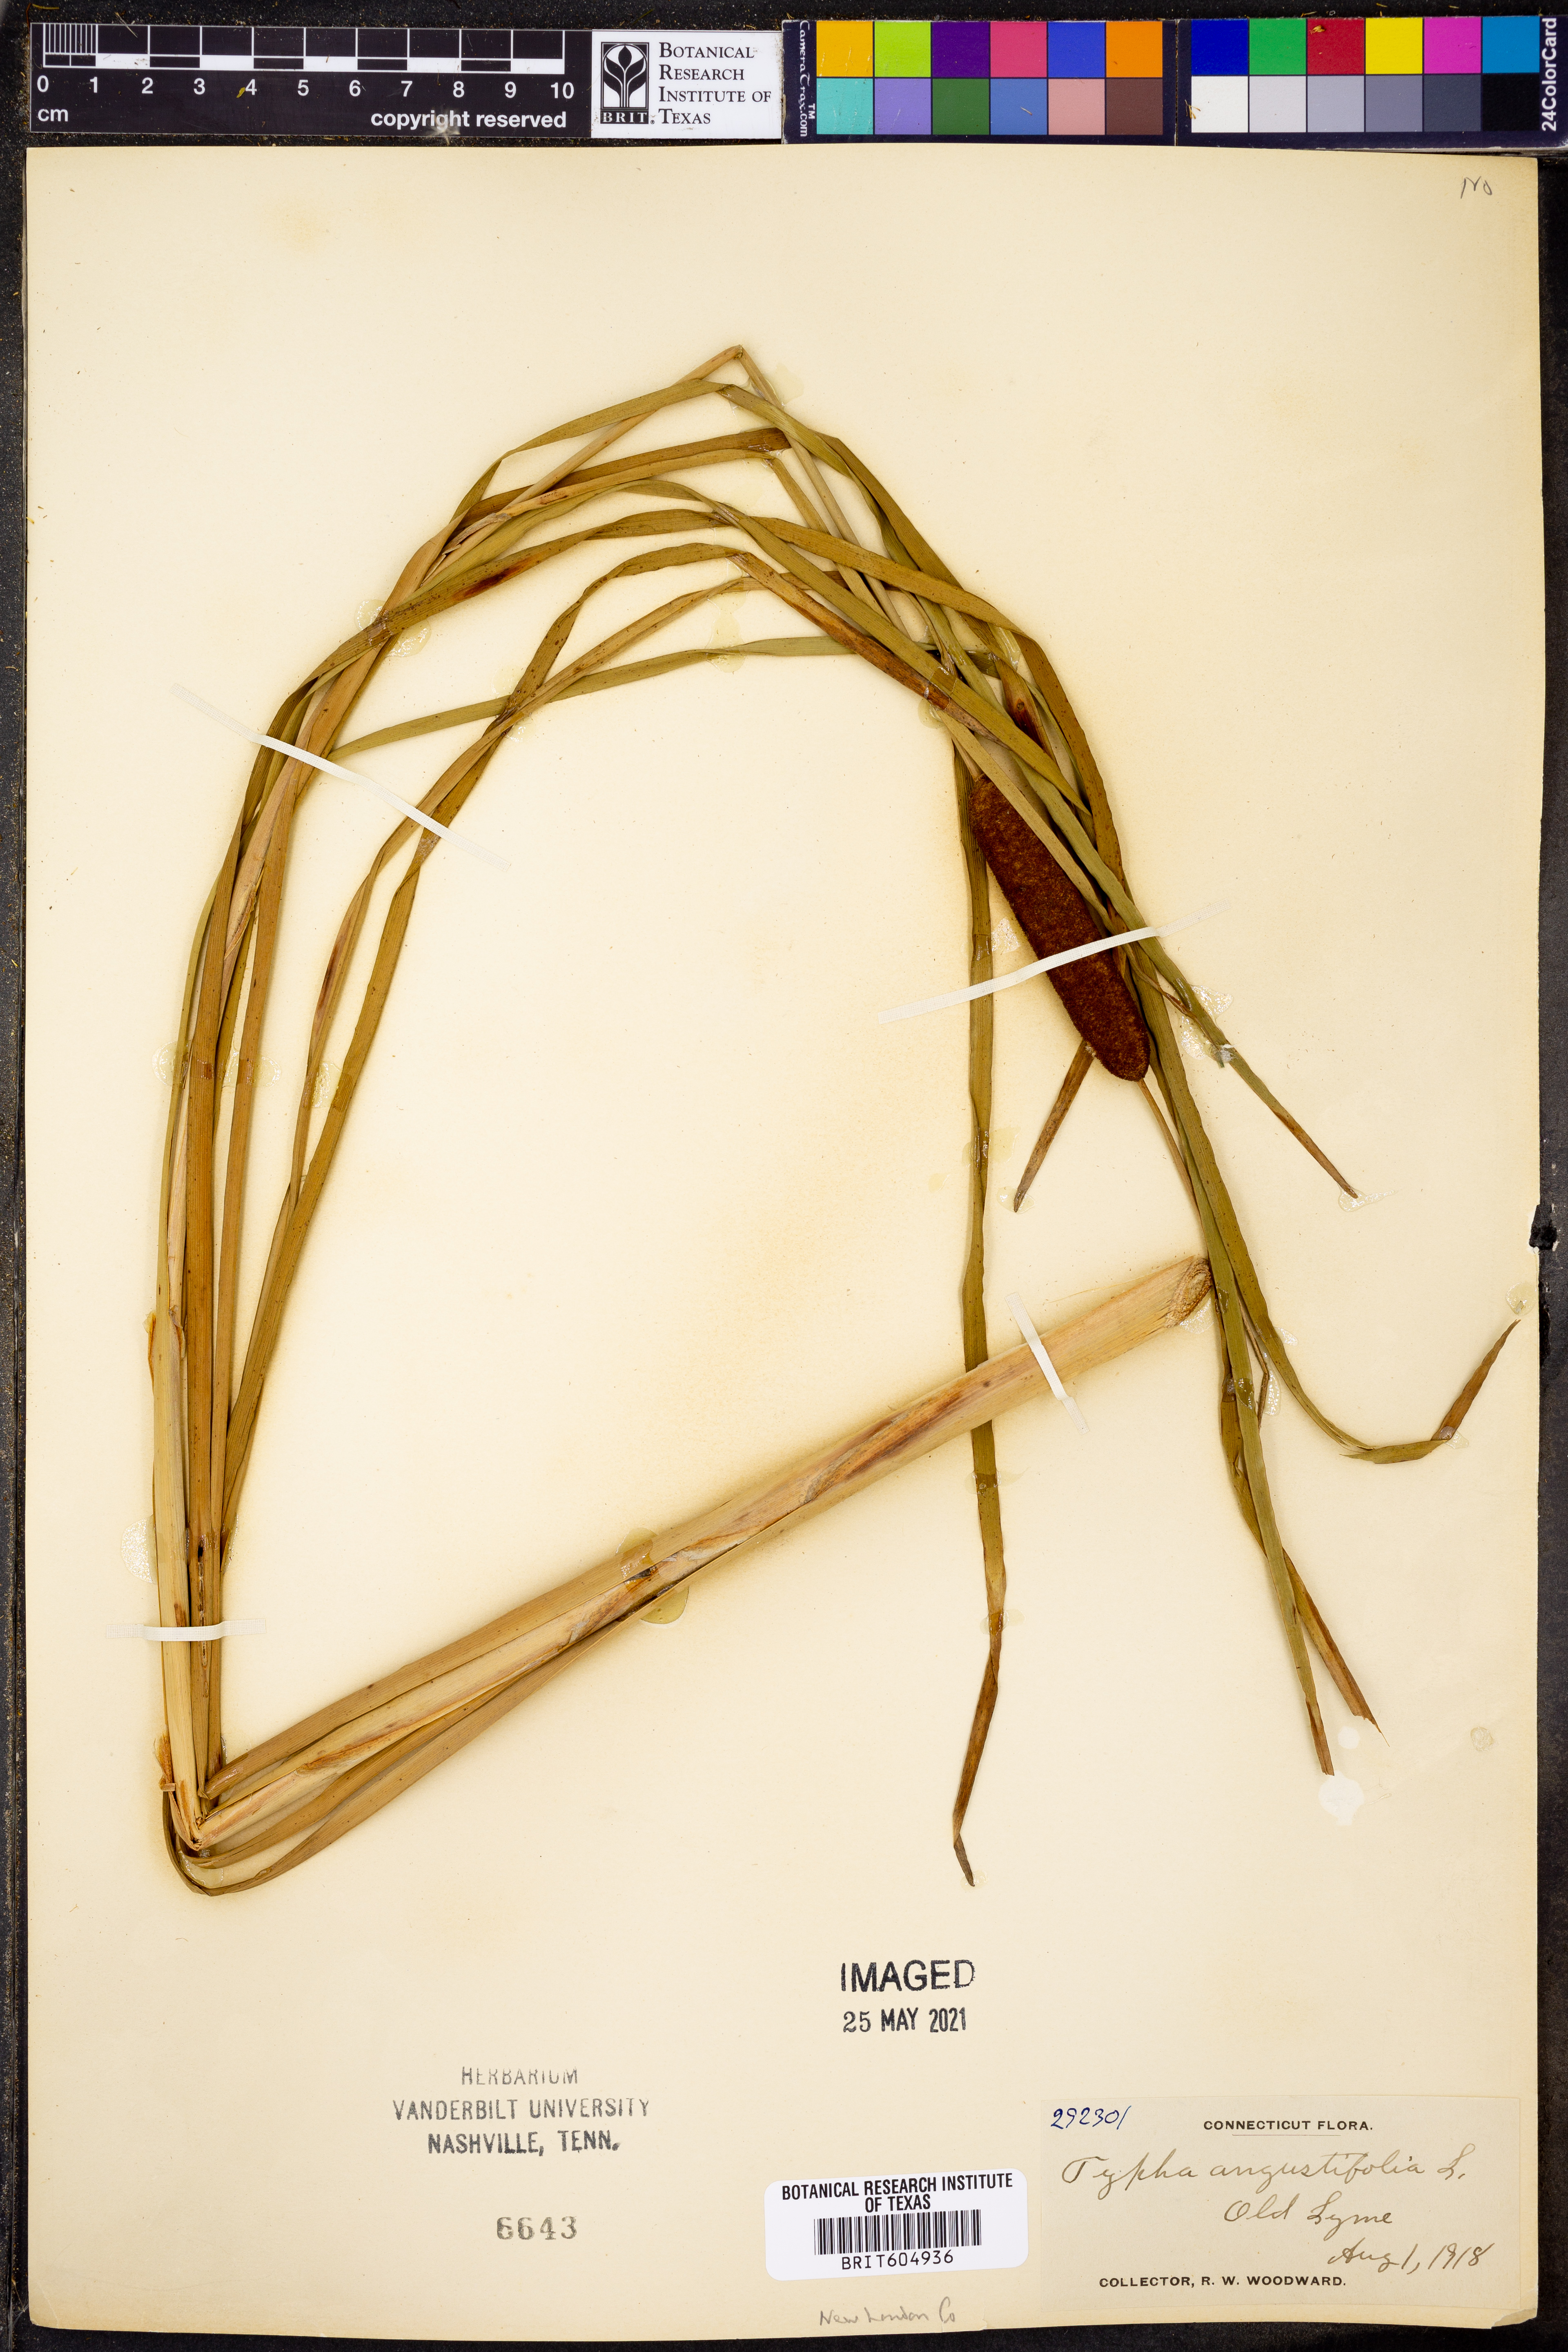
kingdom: Plantae
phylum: Tracheophyta
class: Liliopsida
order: Poales
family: Typhaceae
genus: Typha
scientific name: Typha angustifolia
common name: Lesser bulrush
